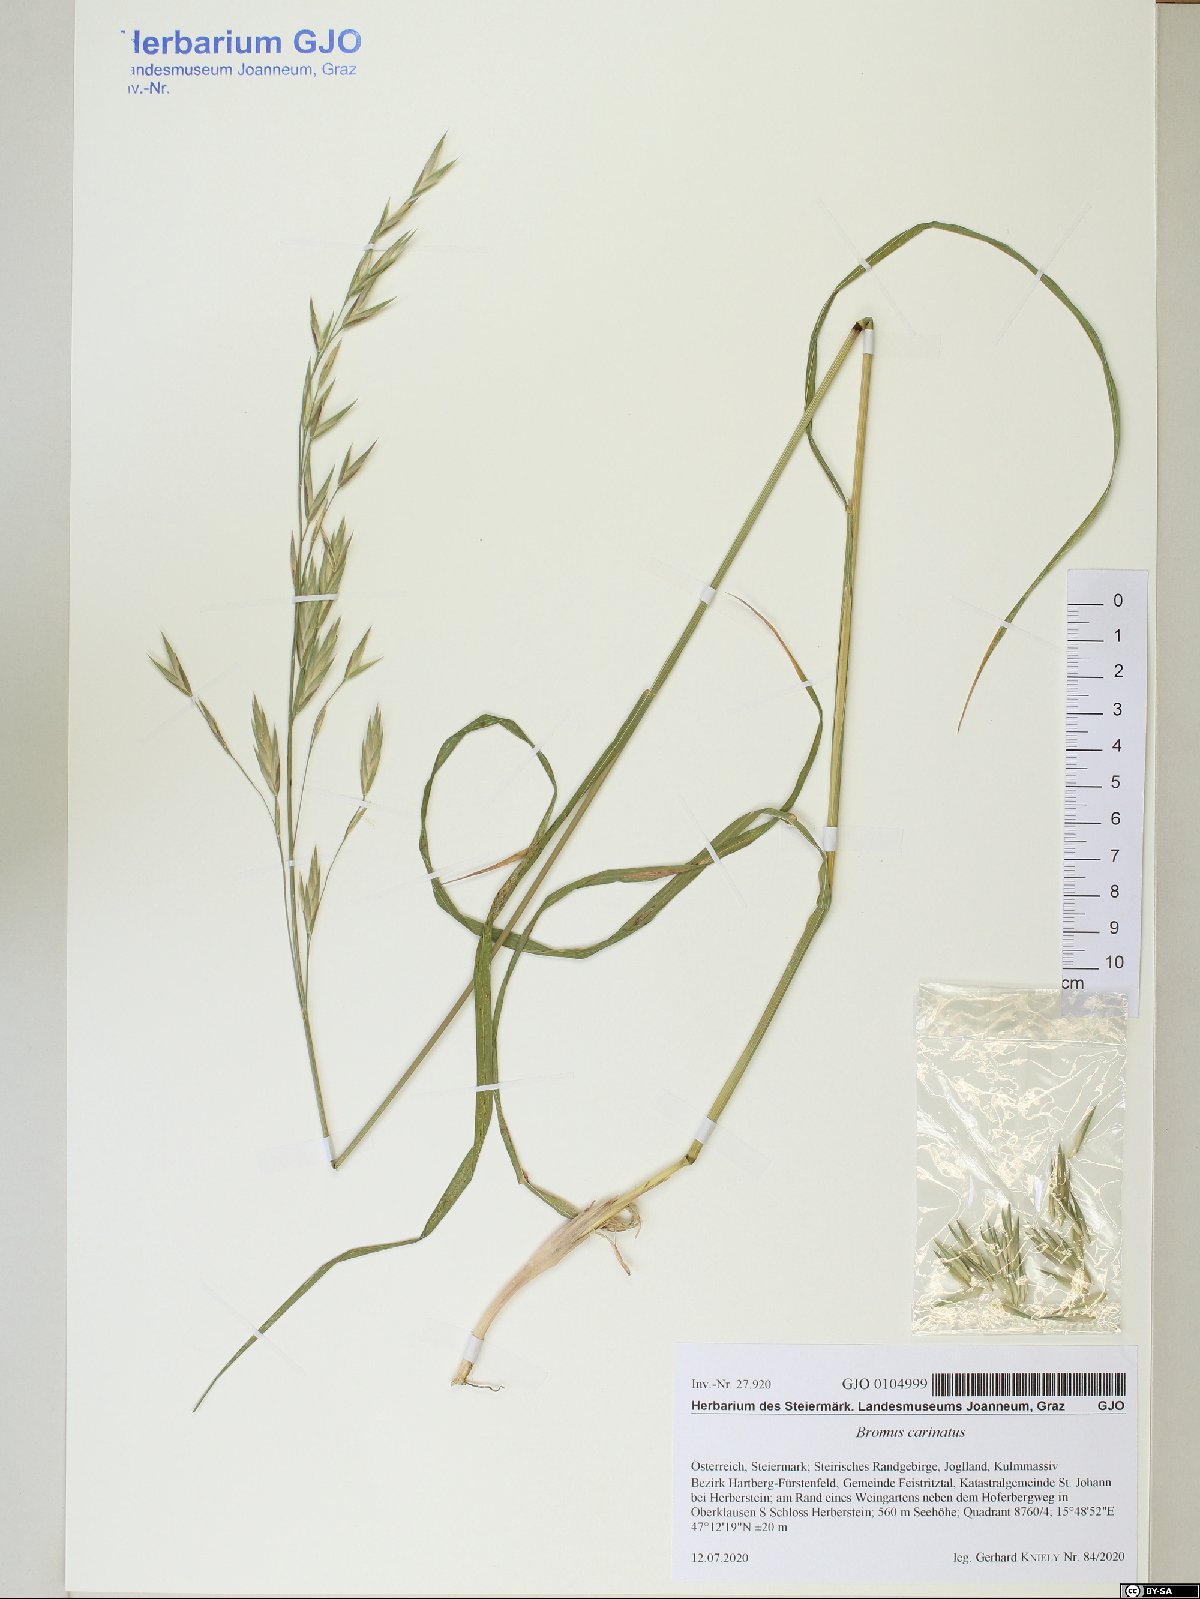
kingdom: Plantae
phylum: Tracheophyta
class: Liliopsida
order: Poales
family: Poaceae
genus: Bromus
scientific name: Bromus carinatus
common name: Mountain brome
